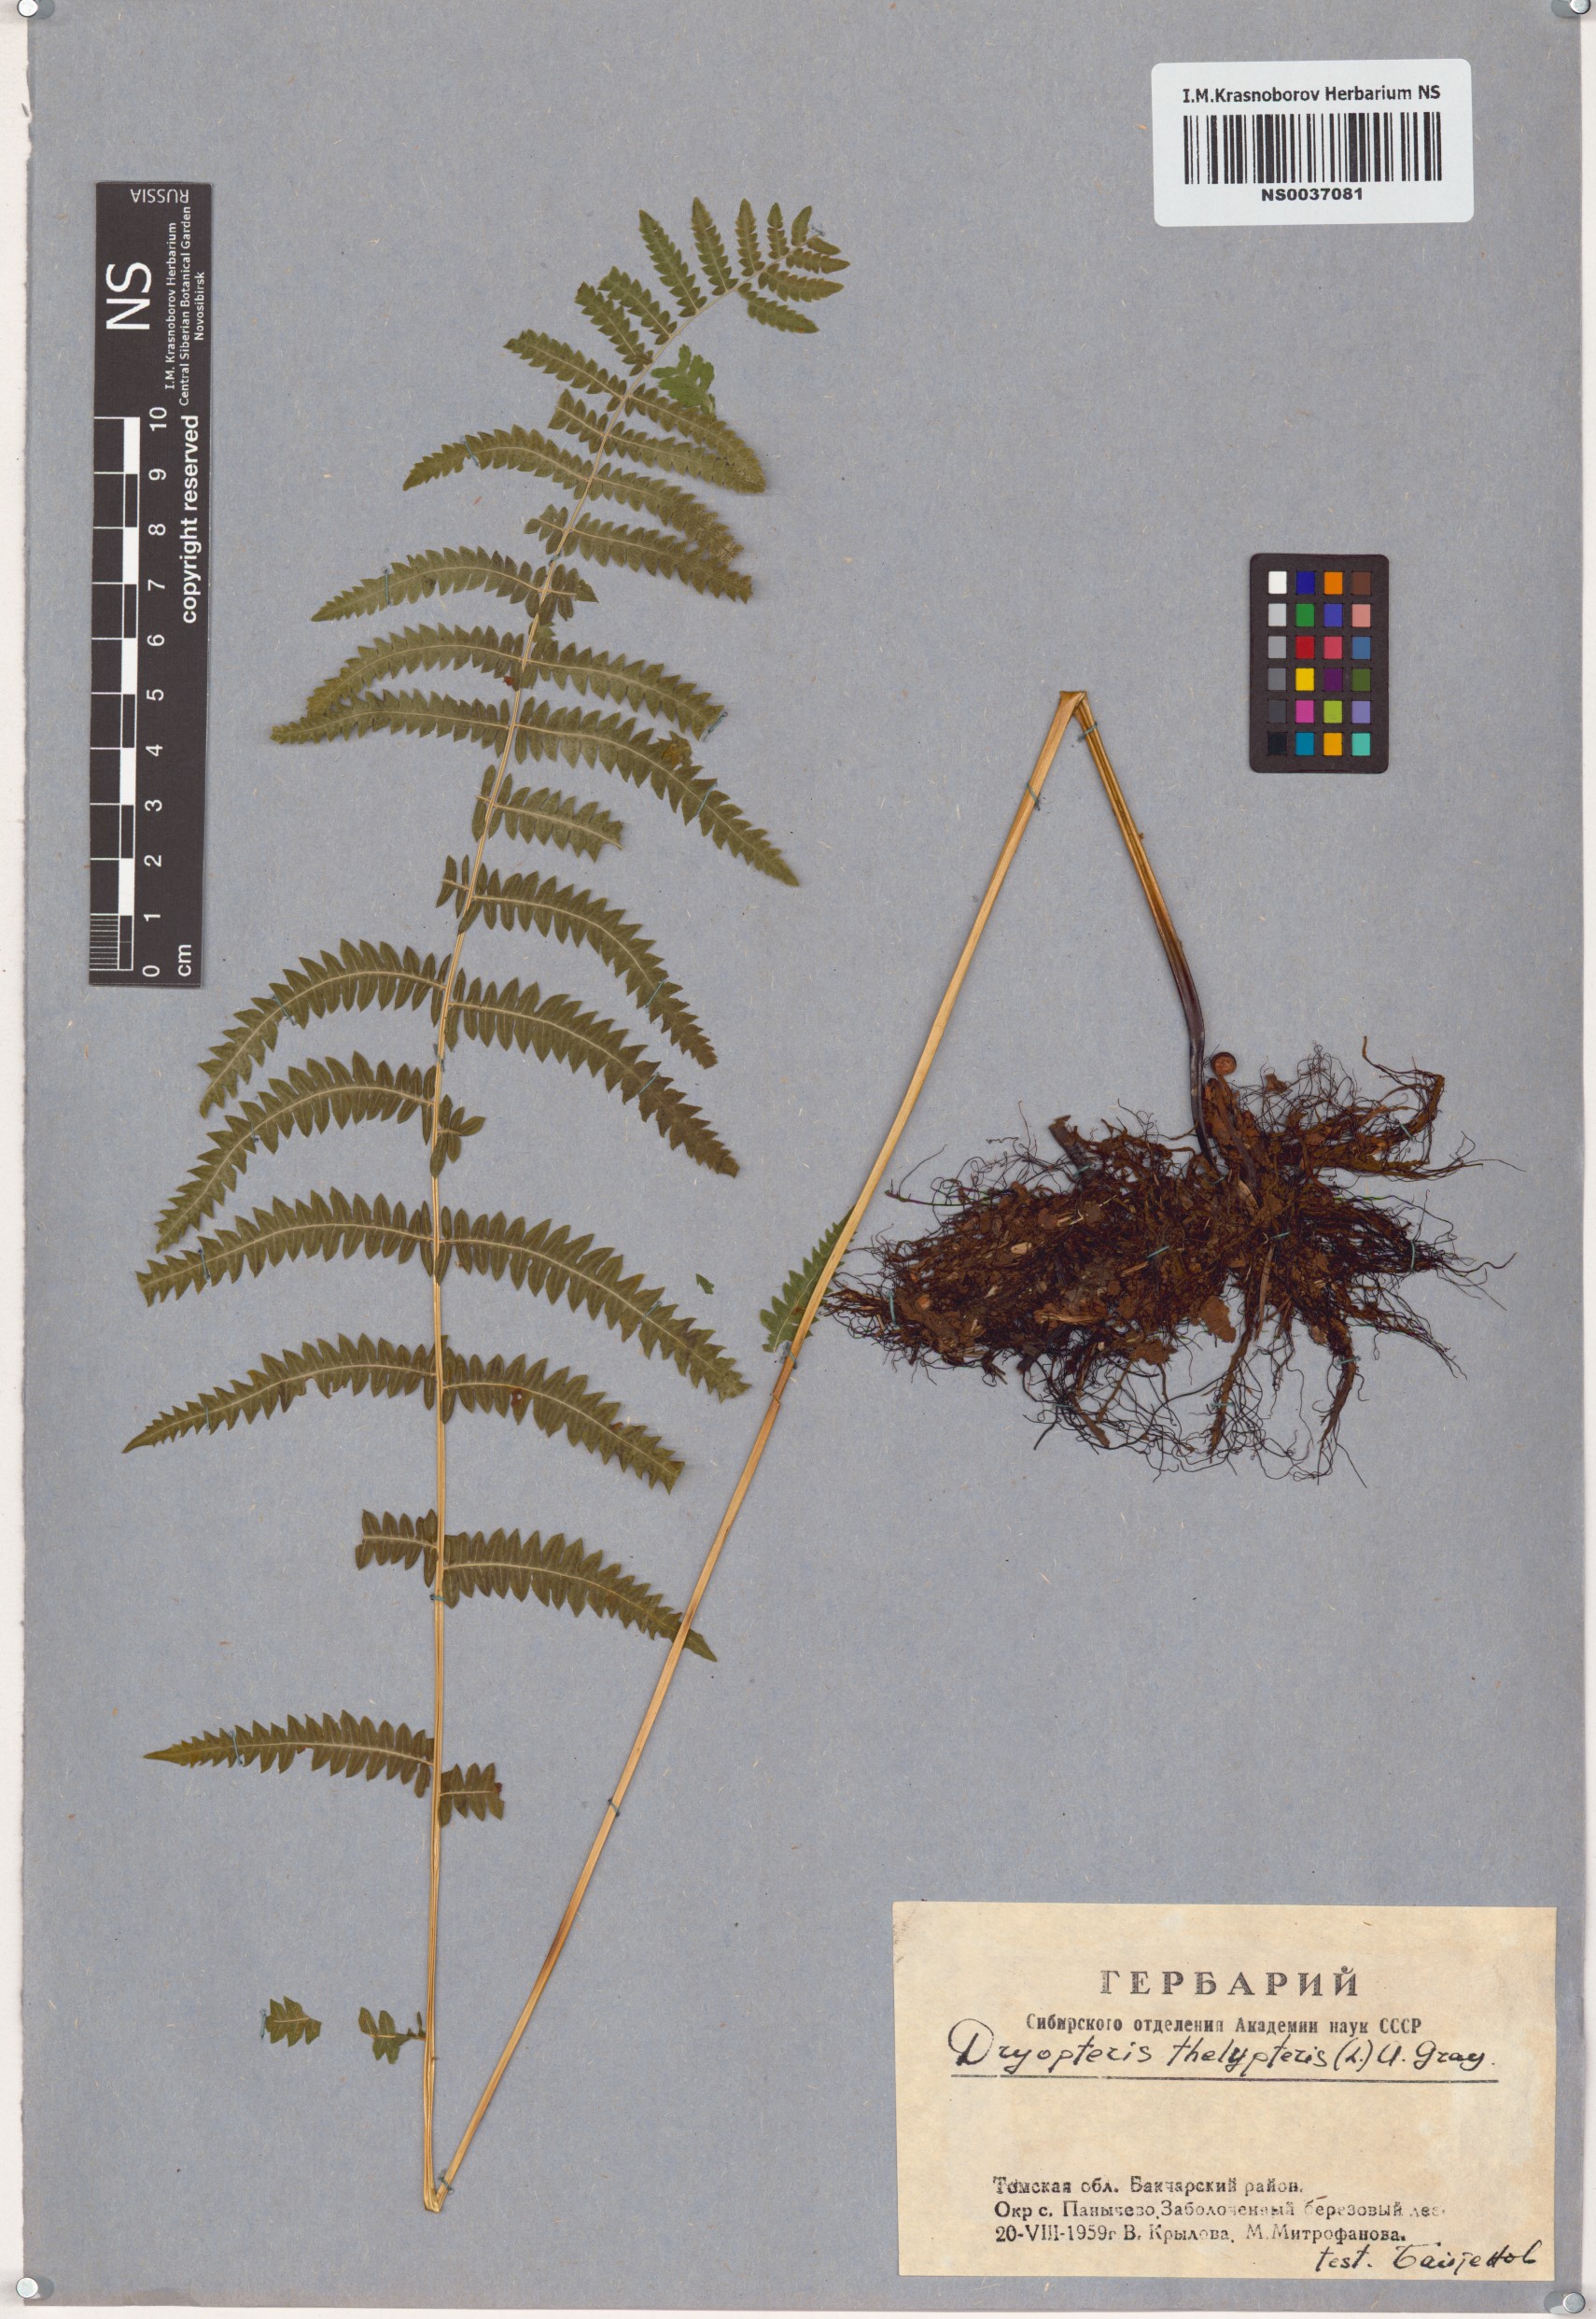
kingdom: Plantae
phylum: Tracheophyta
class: Polypodiopsida
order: Polypodiales
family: Thelypteridaceae
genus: Thelypteris
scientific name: Thelypteris palustris
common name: Marsh fern
